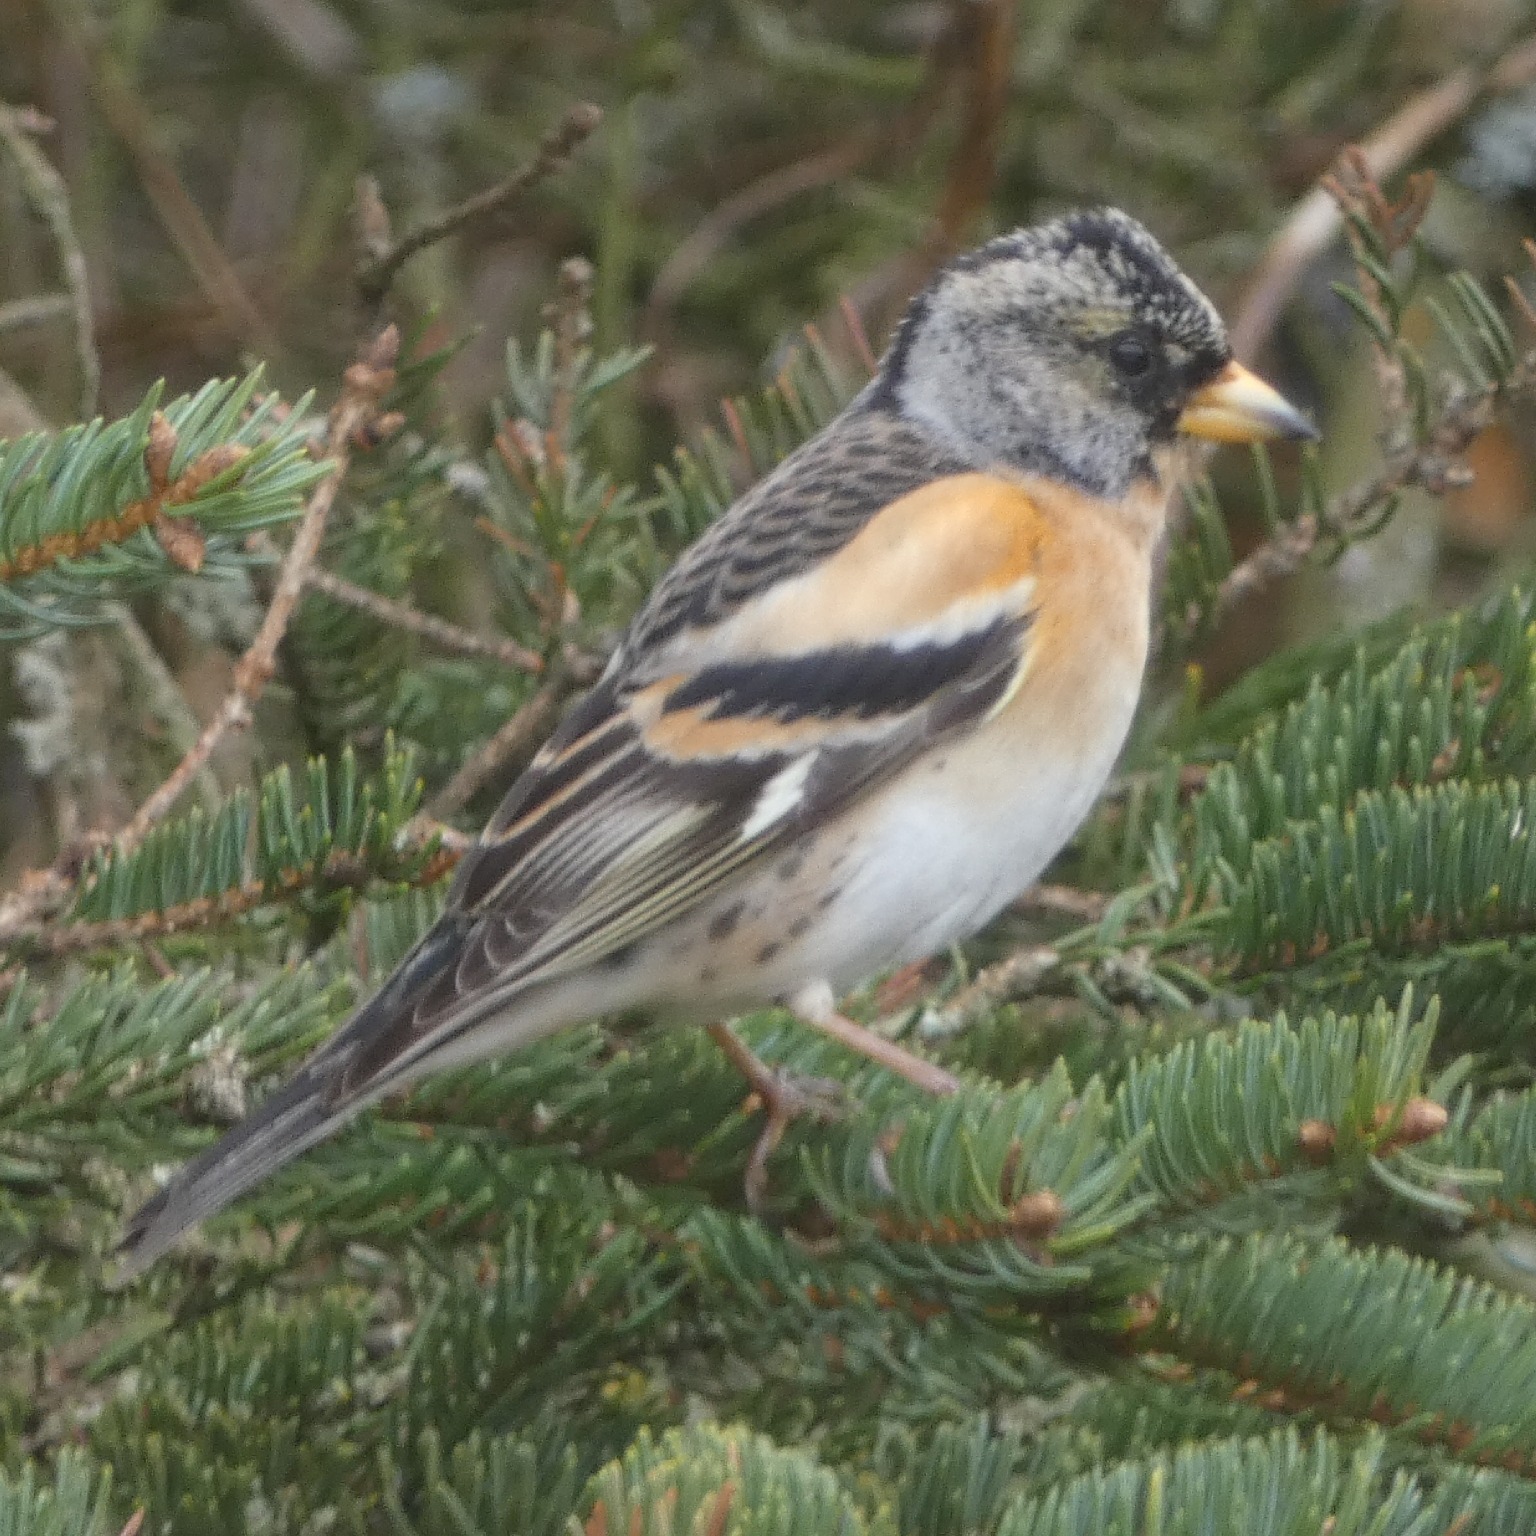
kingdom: Animalia
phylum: Chordata
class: Aves
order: Passeriformes
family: Fringillidae
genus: Fringilla
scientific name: Fringilla montifringilla
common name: Kvækerfinke
